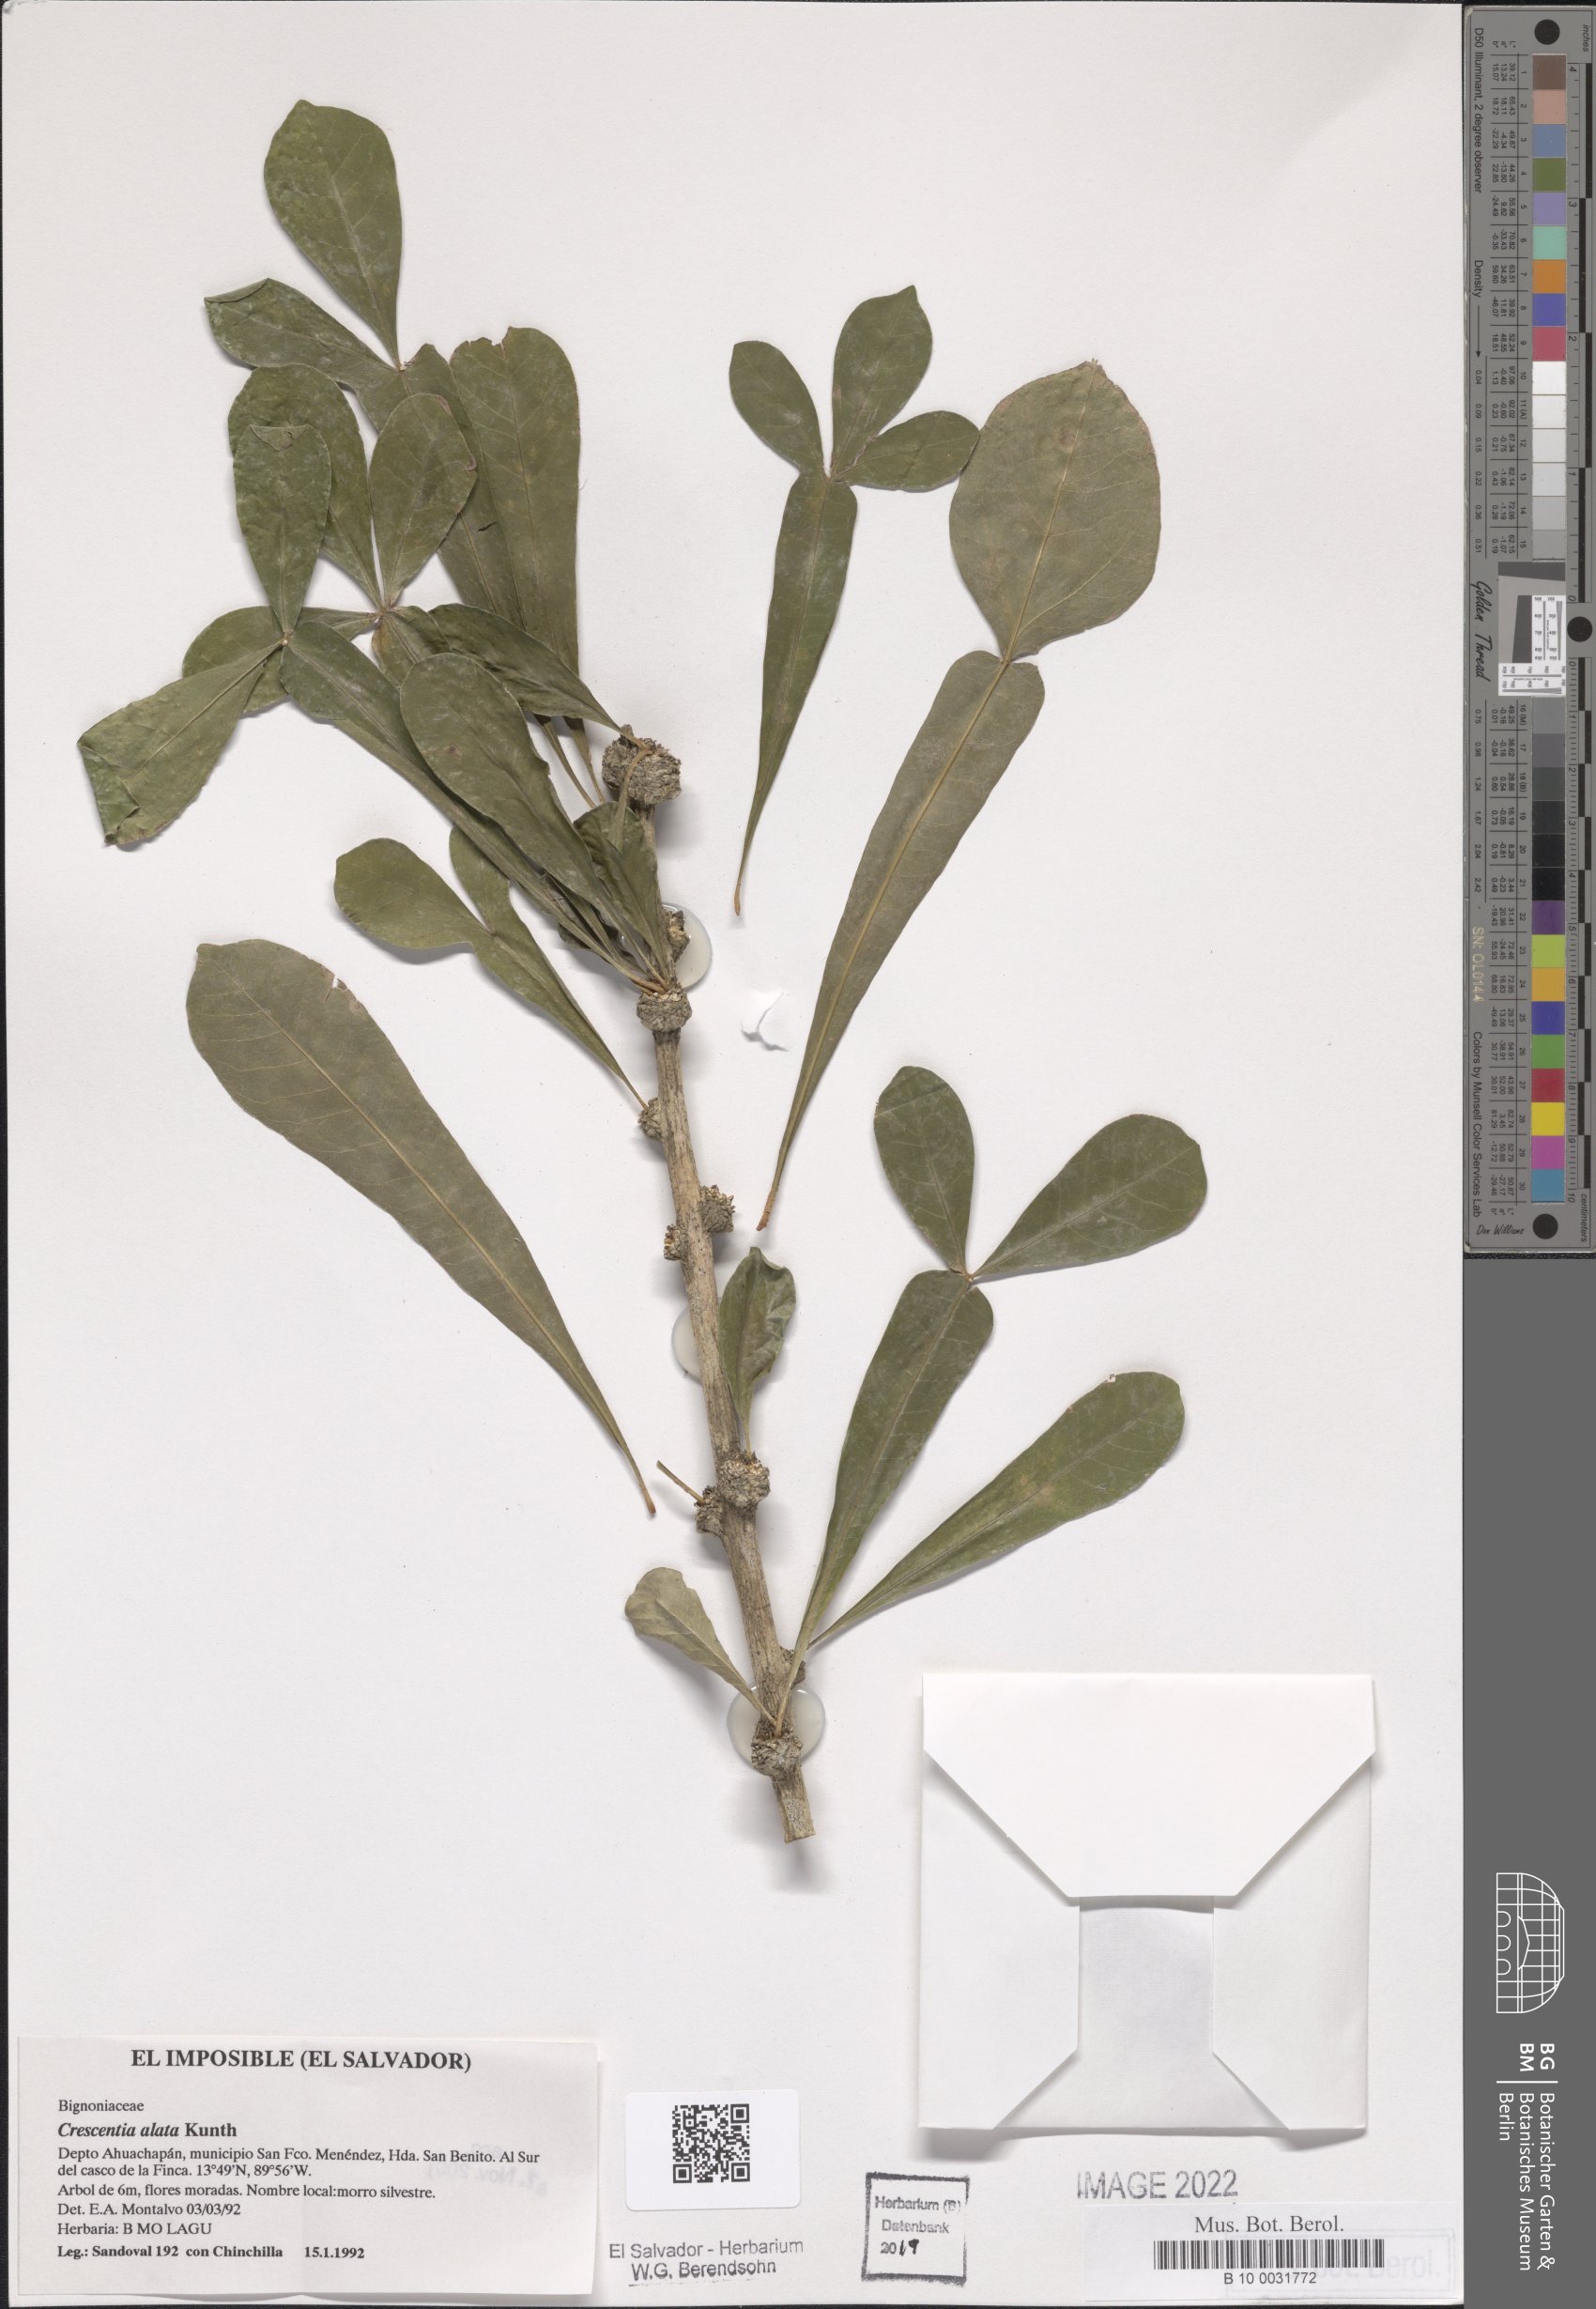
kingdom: Plantae
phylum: Tracheophyta
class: Magnoliopsida
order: Lamiales
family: Bignoniaceae
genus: Crescentia
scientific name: Crescentia alata
